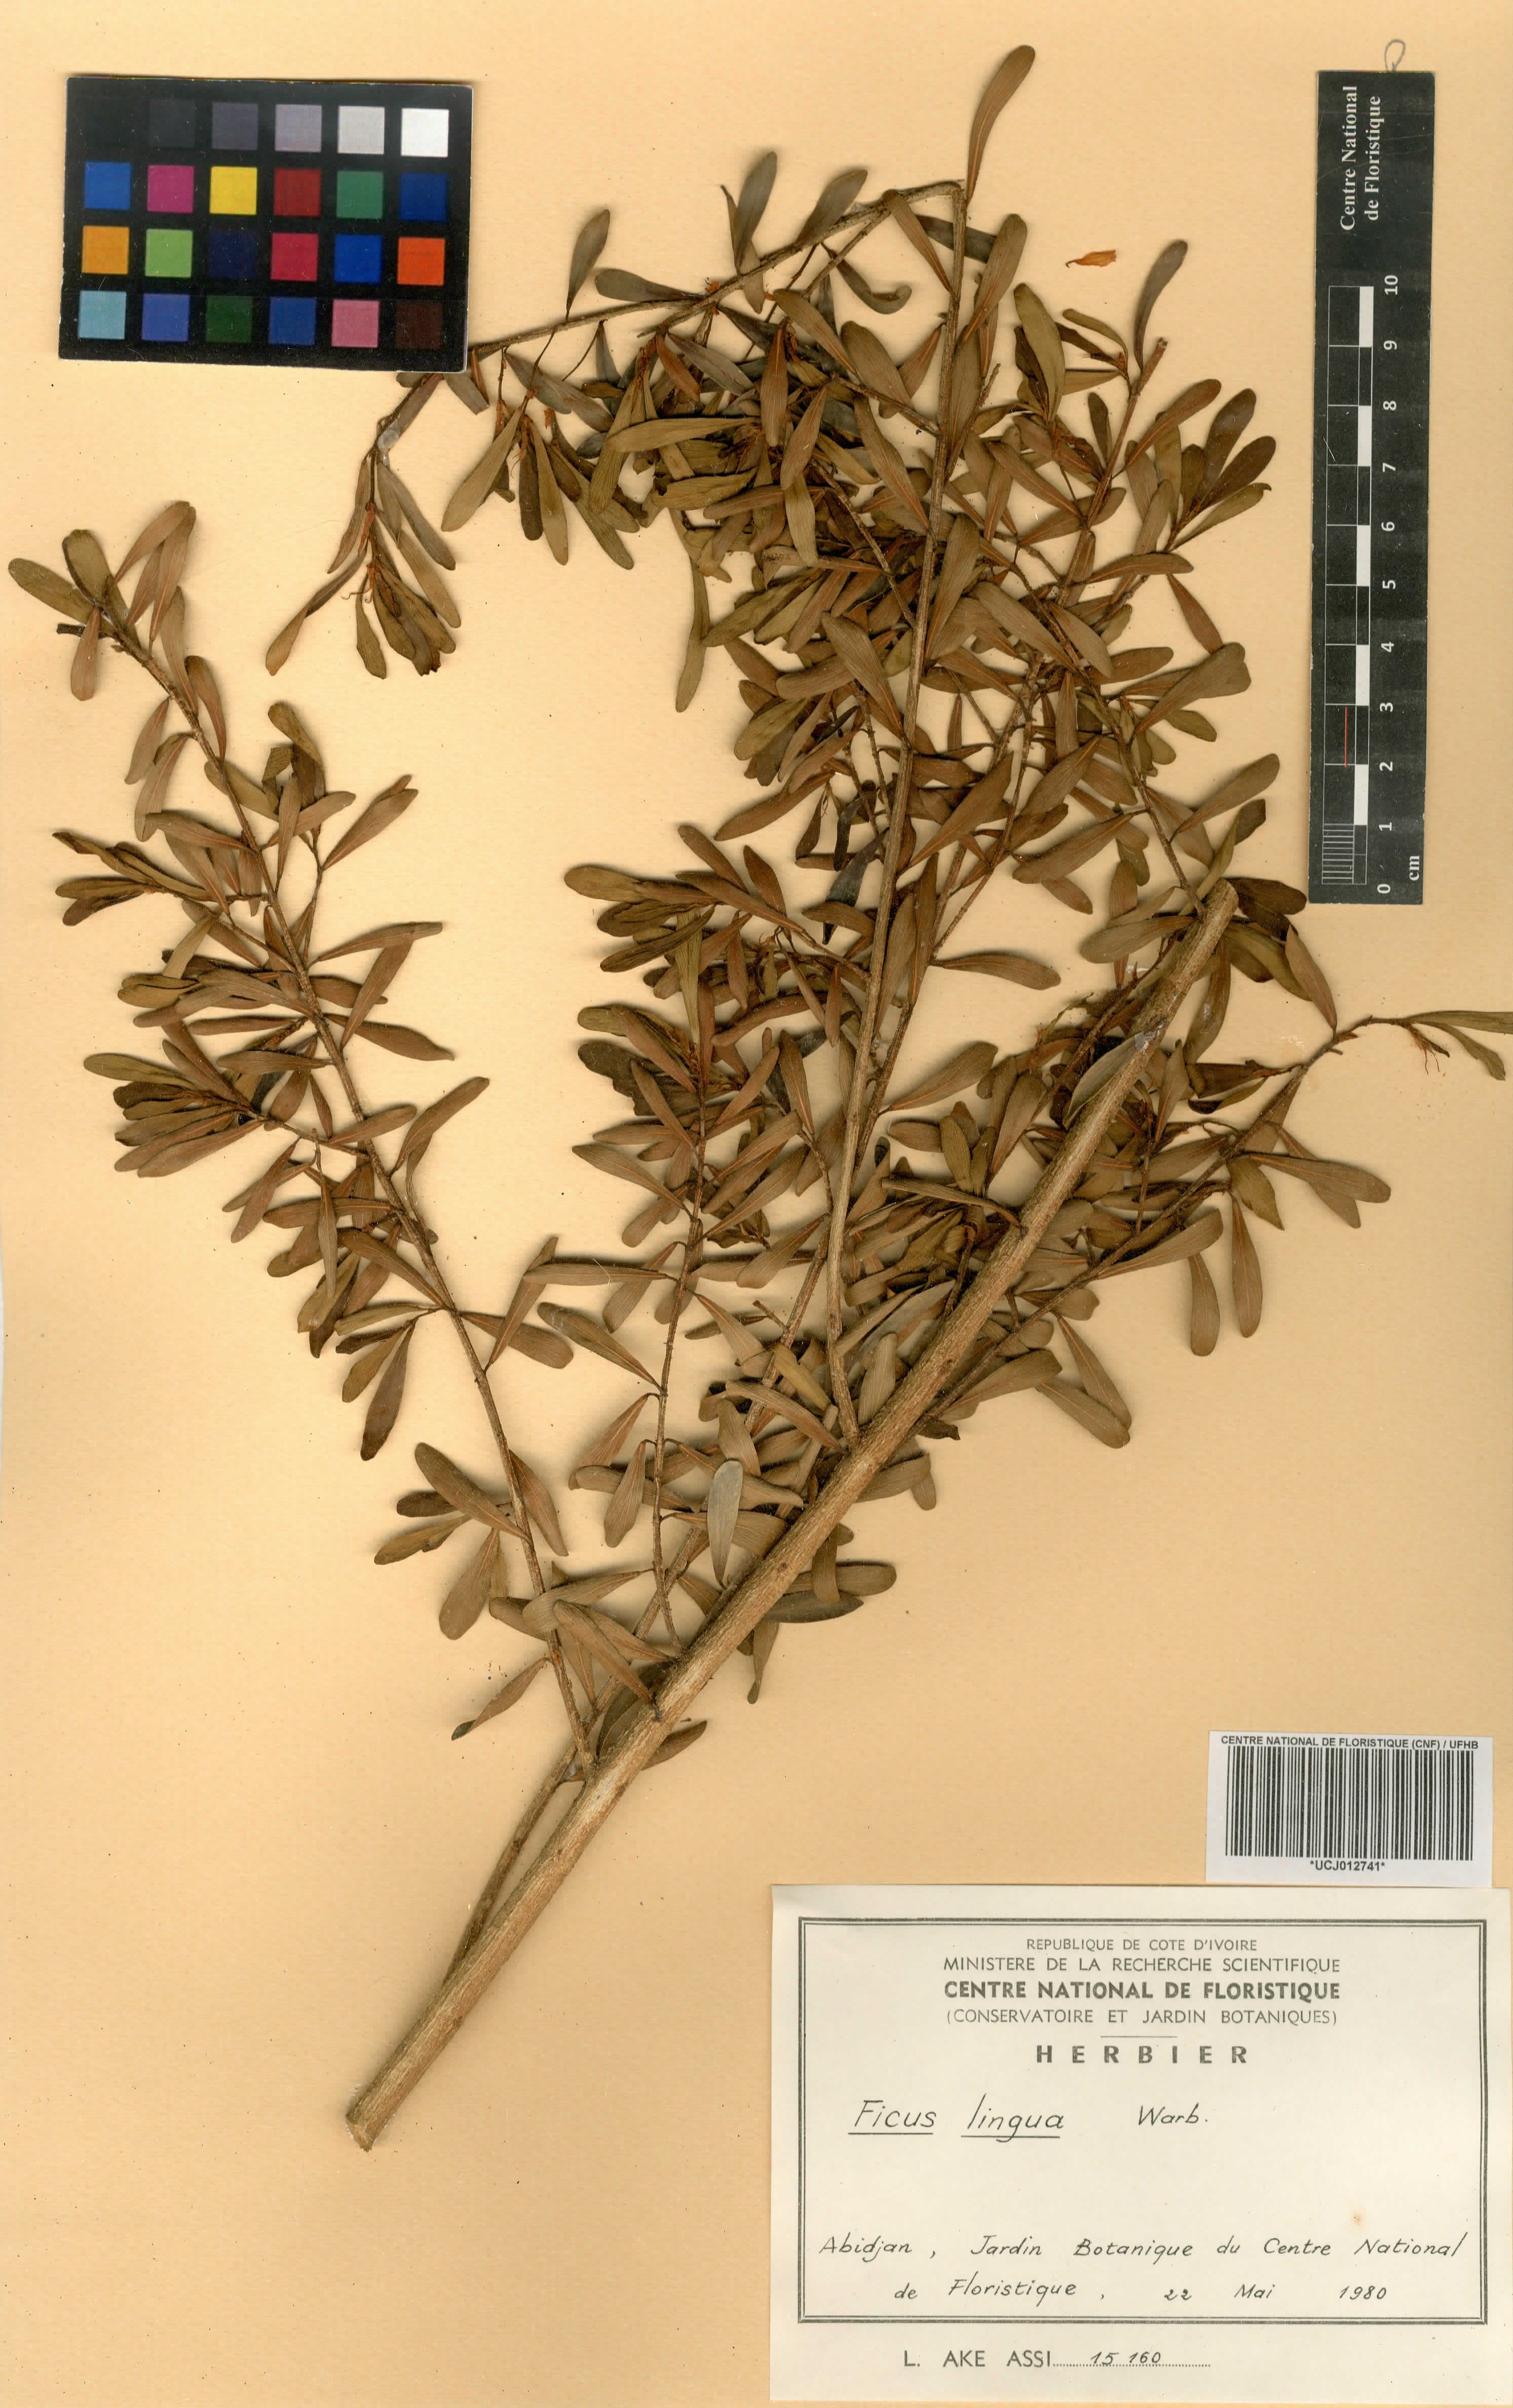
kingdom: Plantae
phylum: Tracheophyta
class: Magnoliopsida
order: Rosales
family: Moraceae
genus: Ficus
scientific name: Ficus lingua
